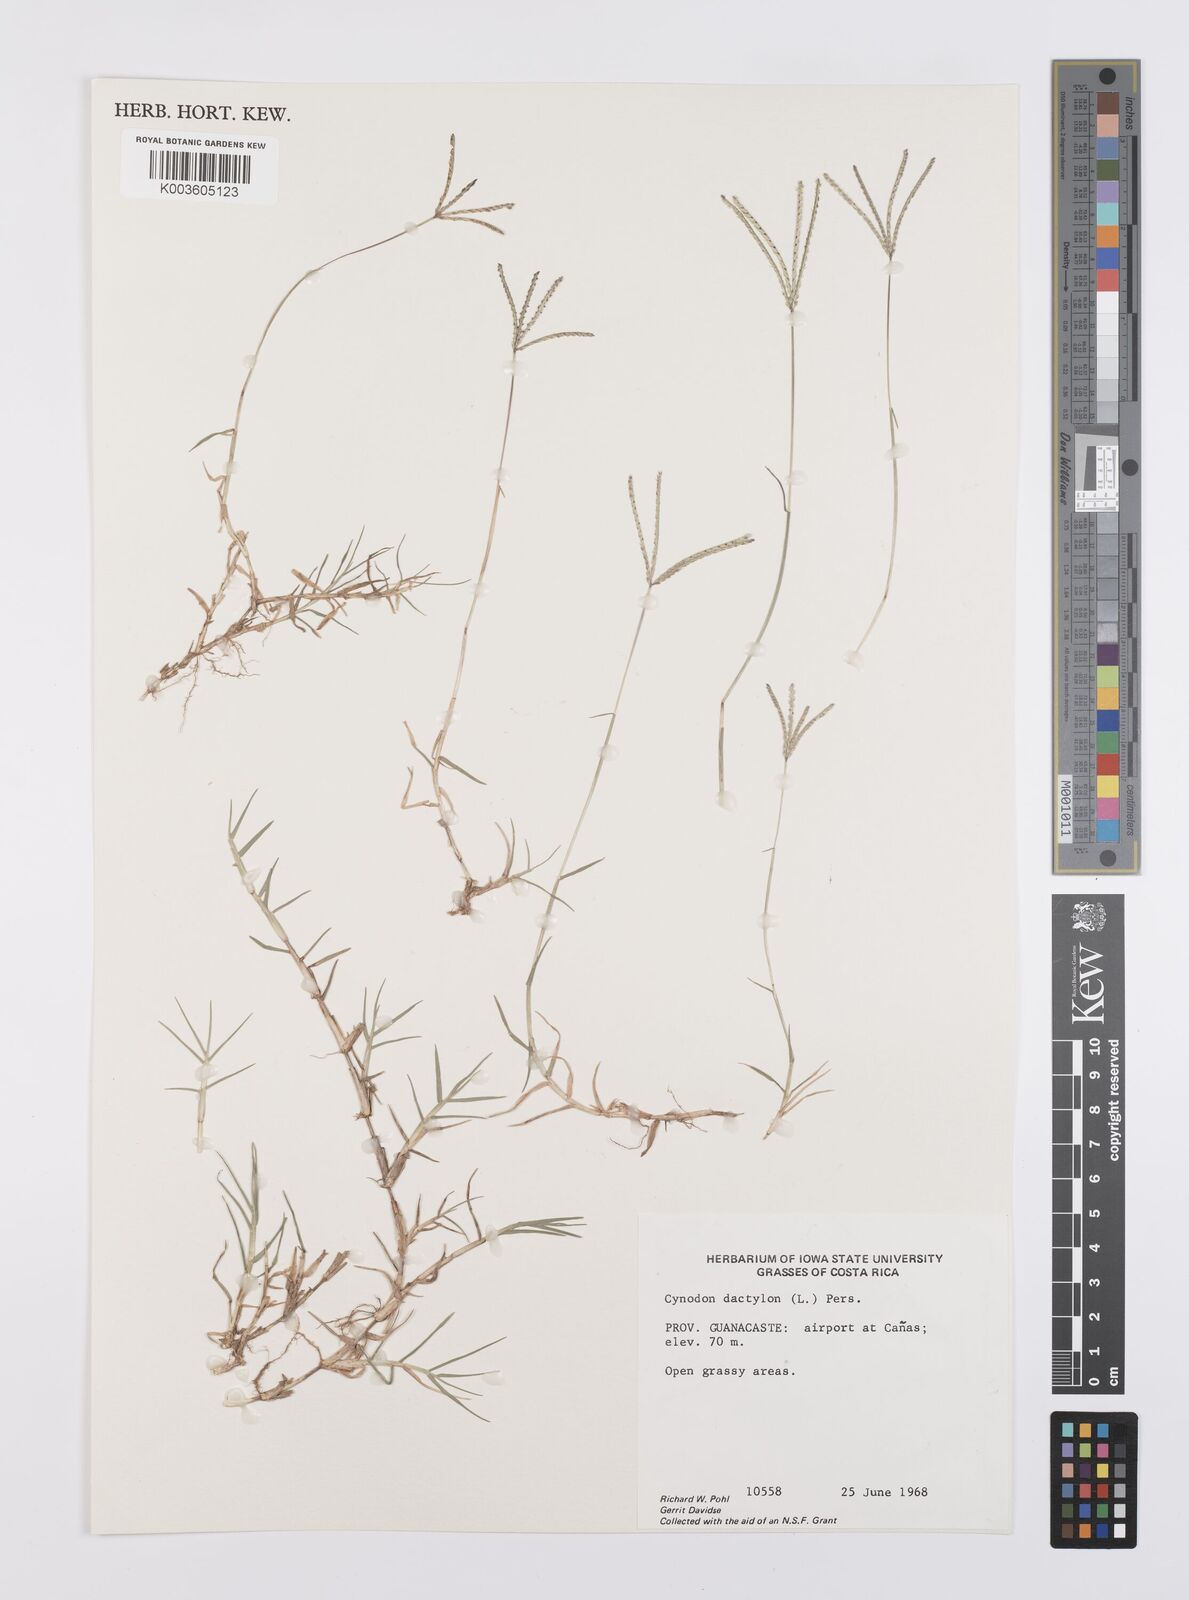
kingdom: Plantae
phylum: Tracheophyta
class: Liliopsida
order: Poales
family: Poaceae
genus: Cynodon
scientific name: Cynodon dactylon
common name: Bermuda grass
